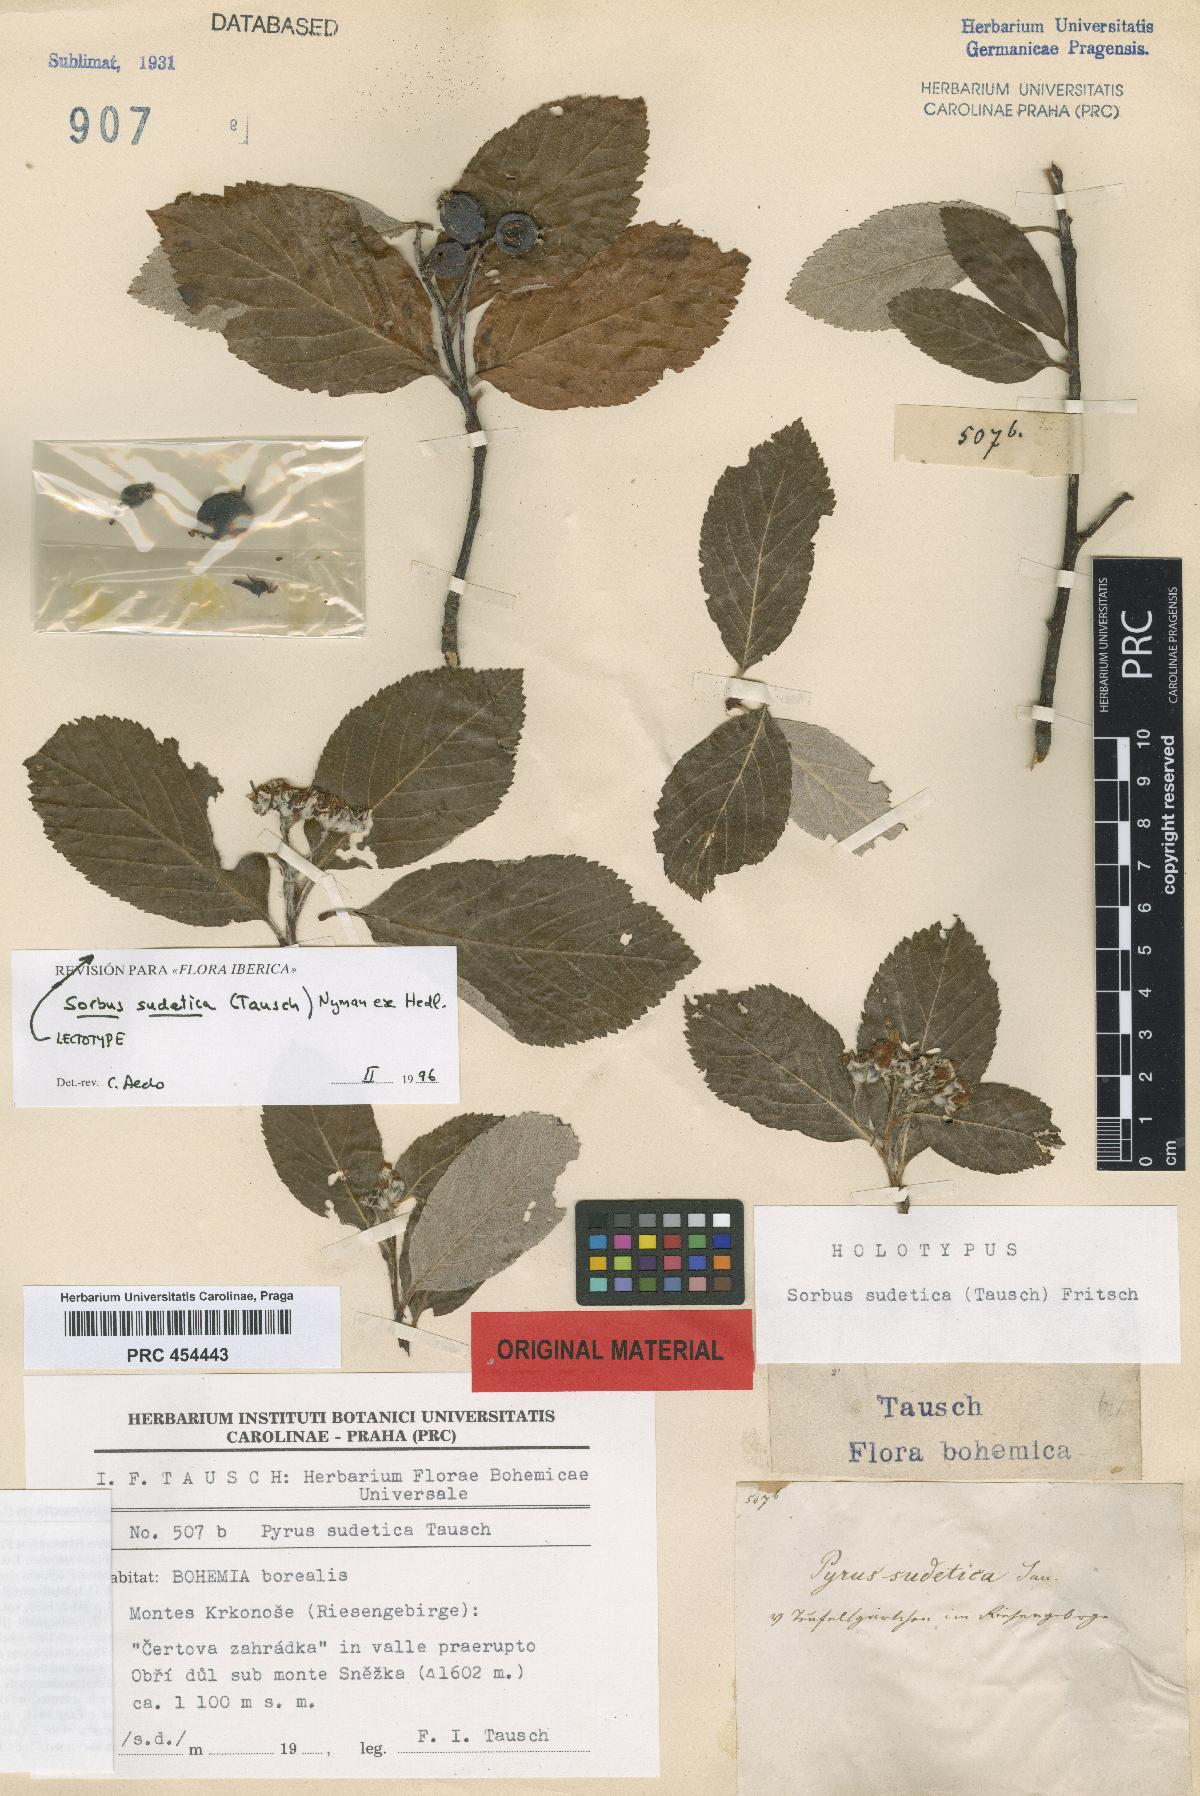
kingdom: Plantae
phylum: Tracheophyta
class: Magnoliopsida
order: Rosales
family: Rosaceae
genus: Sorbus
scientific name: Sorbus sudetica
